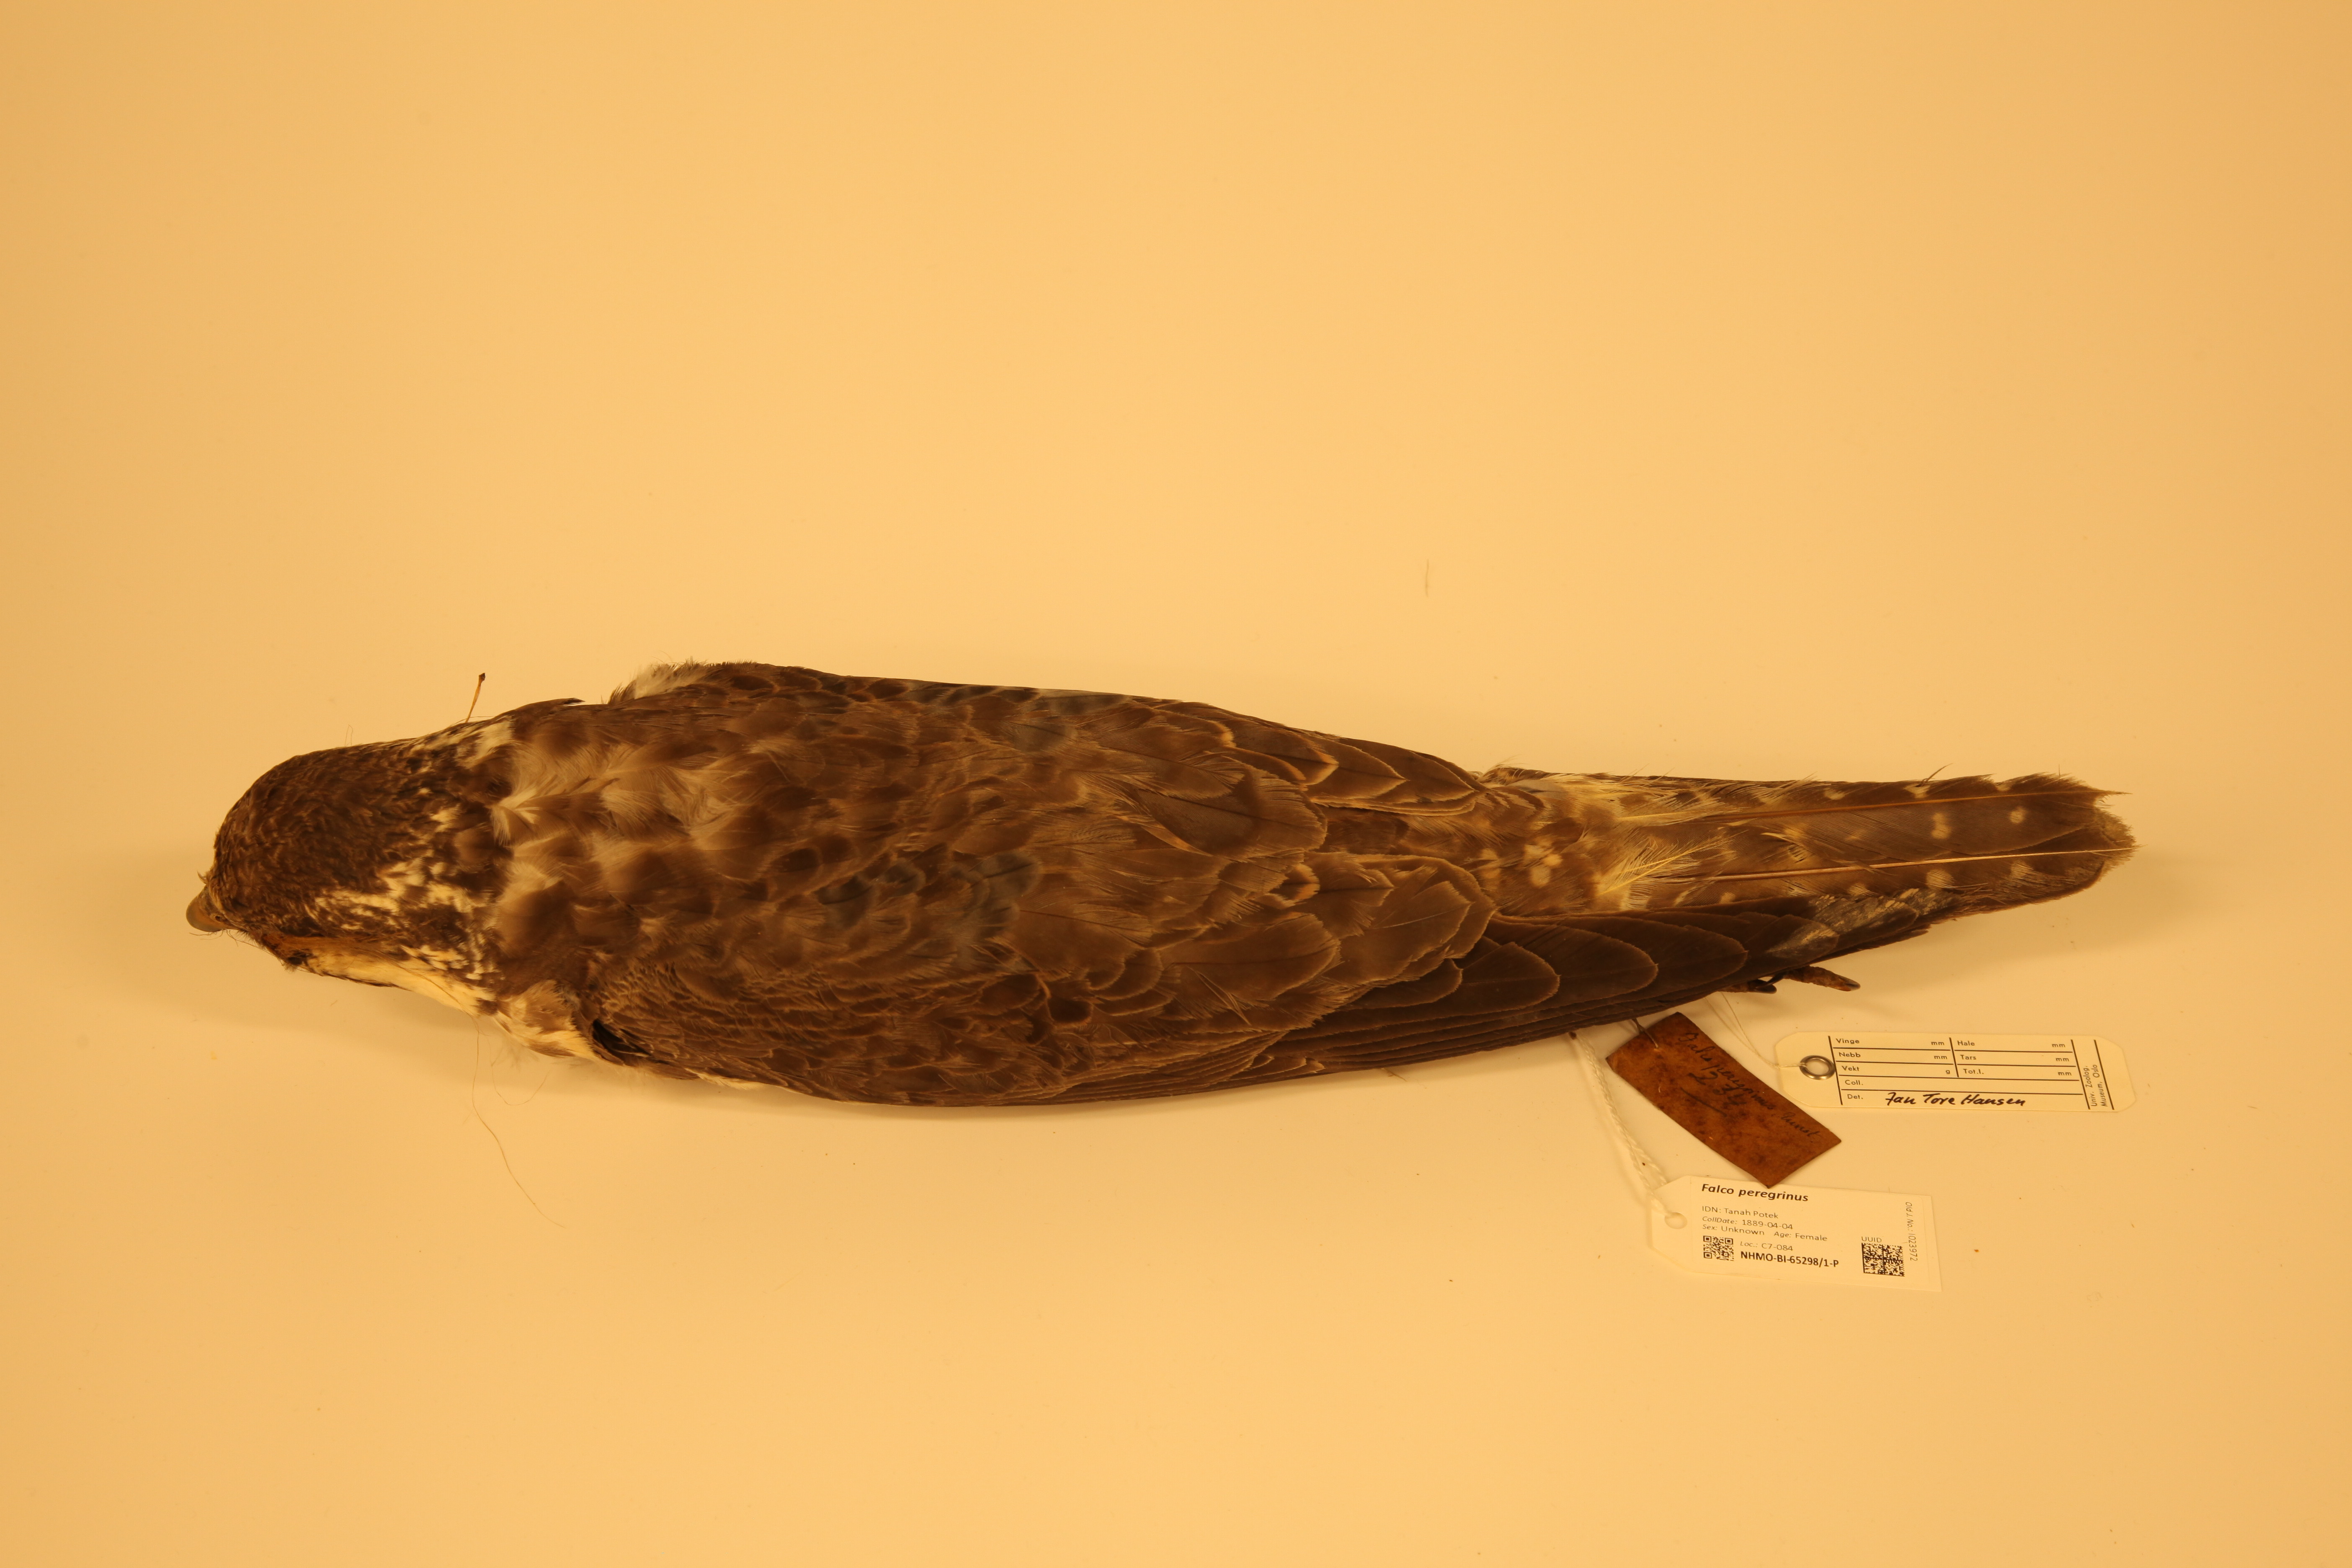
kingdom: Animalia
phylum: Chordata
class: Aves
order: Falconiformes
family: Falconidae
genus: Falco
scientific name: Falco peregrinus
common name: Peregrine falcon
